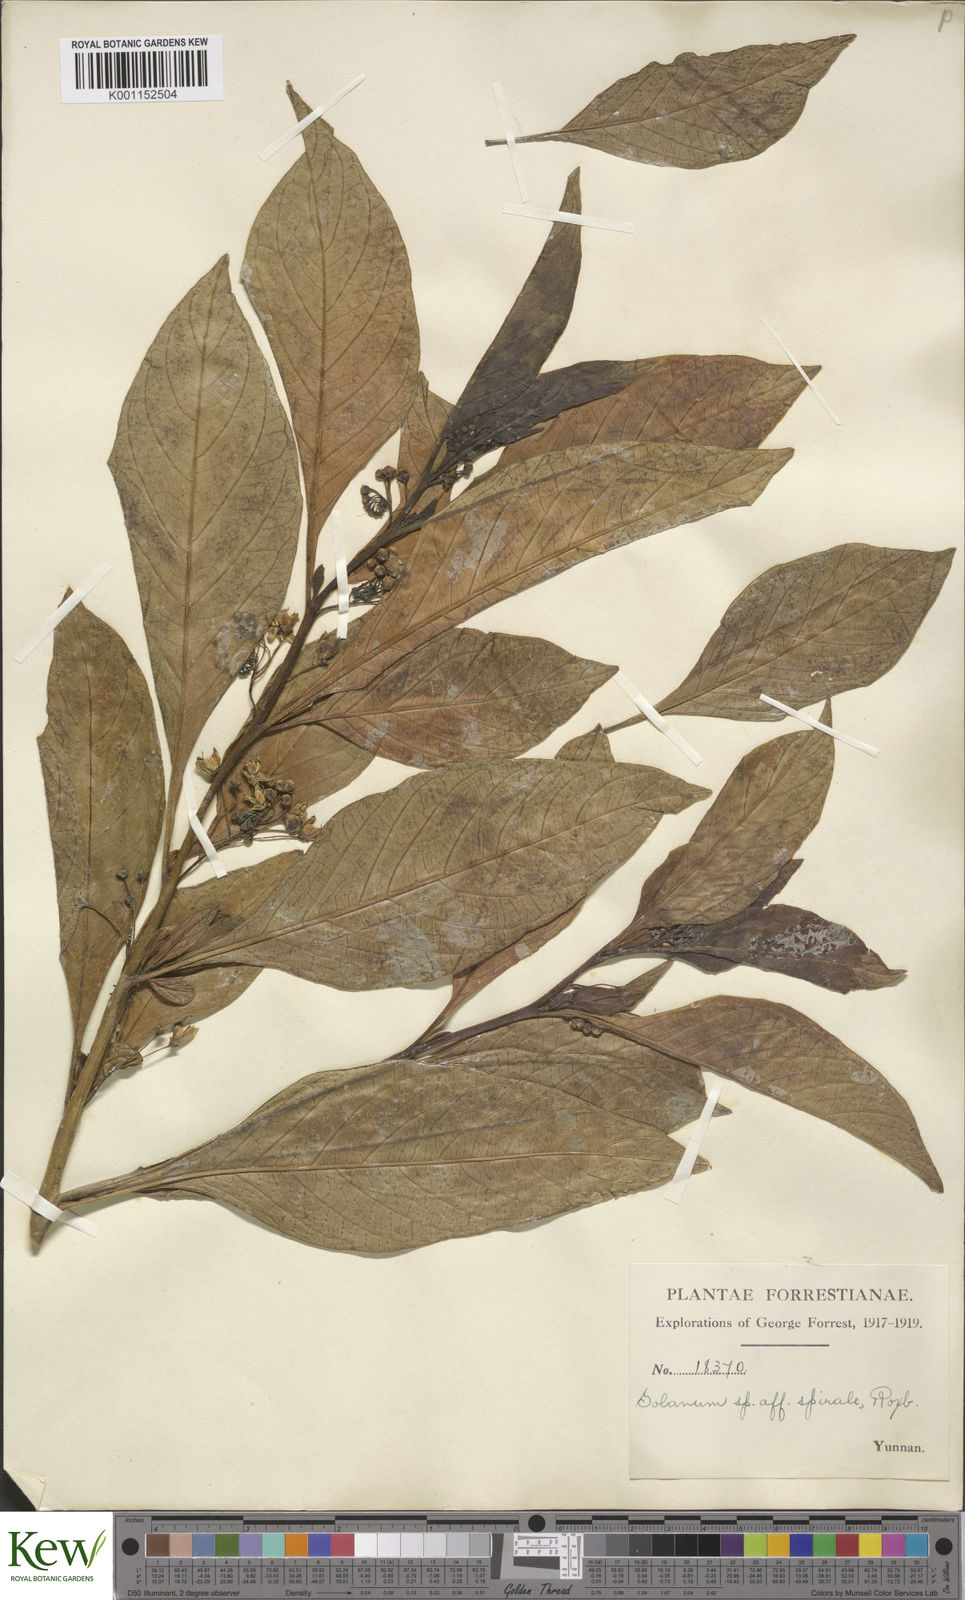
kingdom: Plantae
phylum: Tracheophyta
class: Magnoliopsida
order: Solanales
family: Solanaceae
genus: Solanum
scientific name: Solanum spirale
